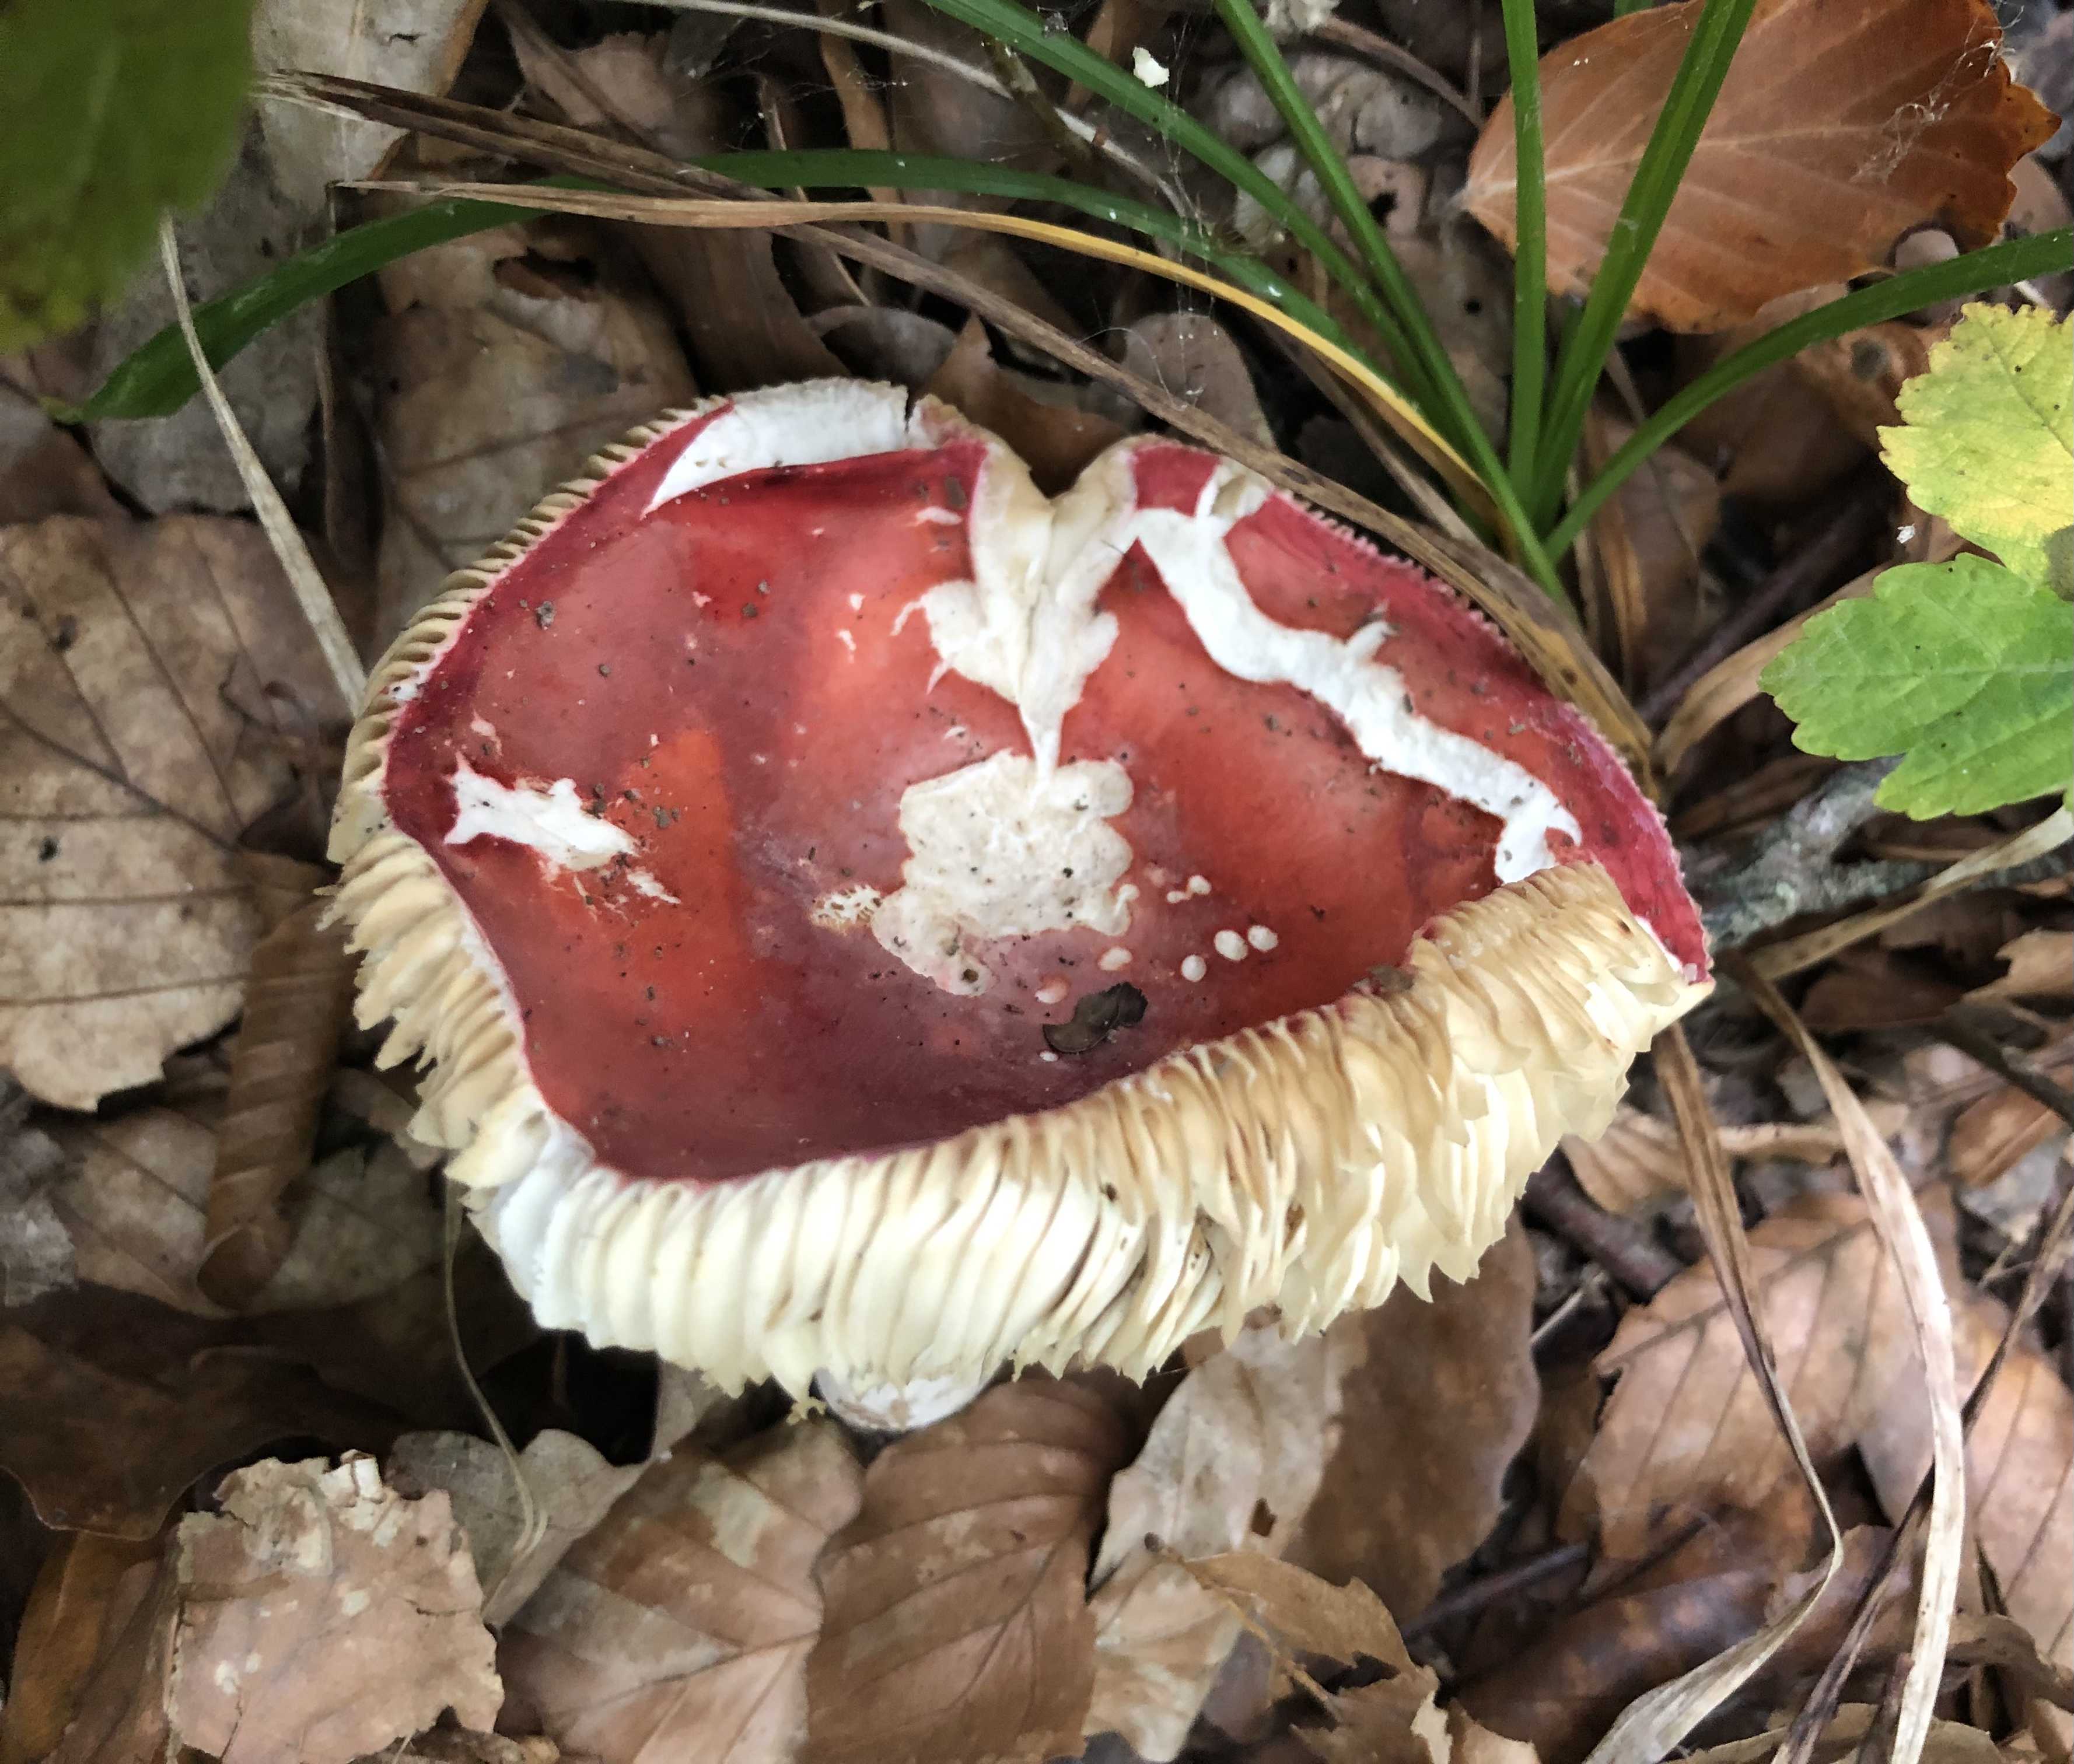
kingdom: Fungi
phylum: Basidiomycota
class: Agaricomycetes
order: Russulales
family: Russulaceae
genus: Russula
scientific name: Russula rosea
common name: fastkødet skørhat
